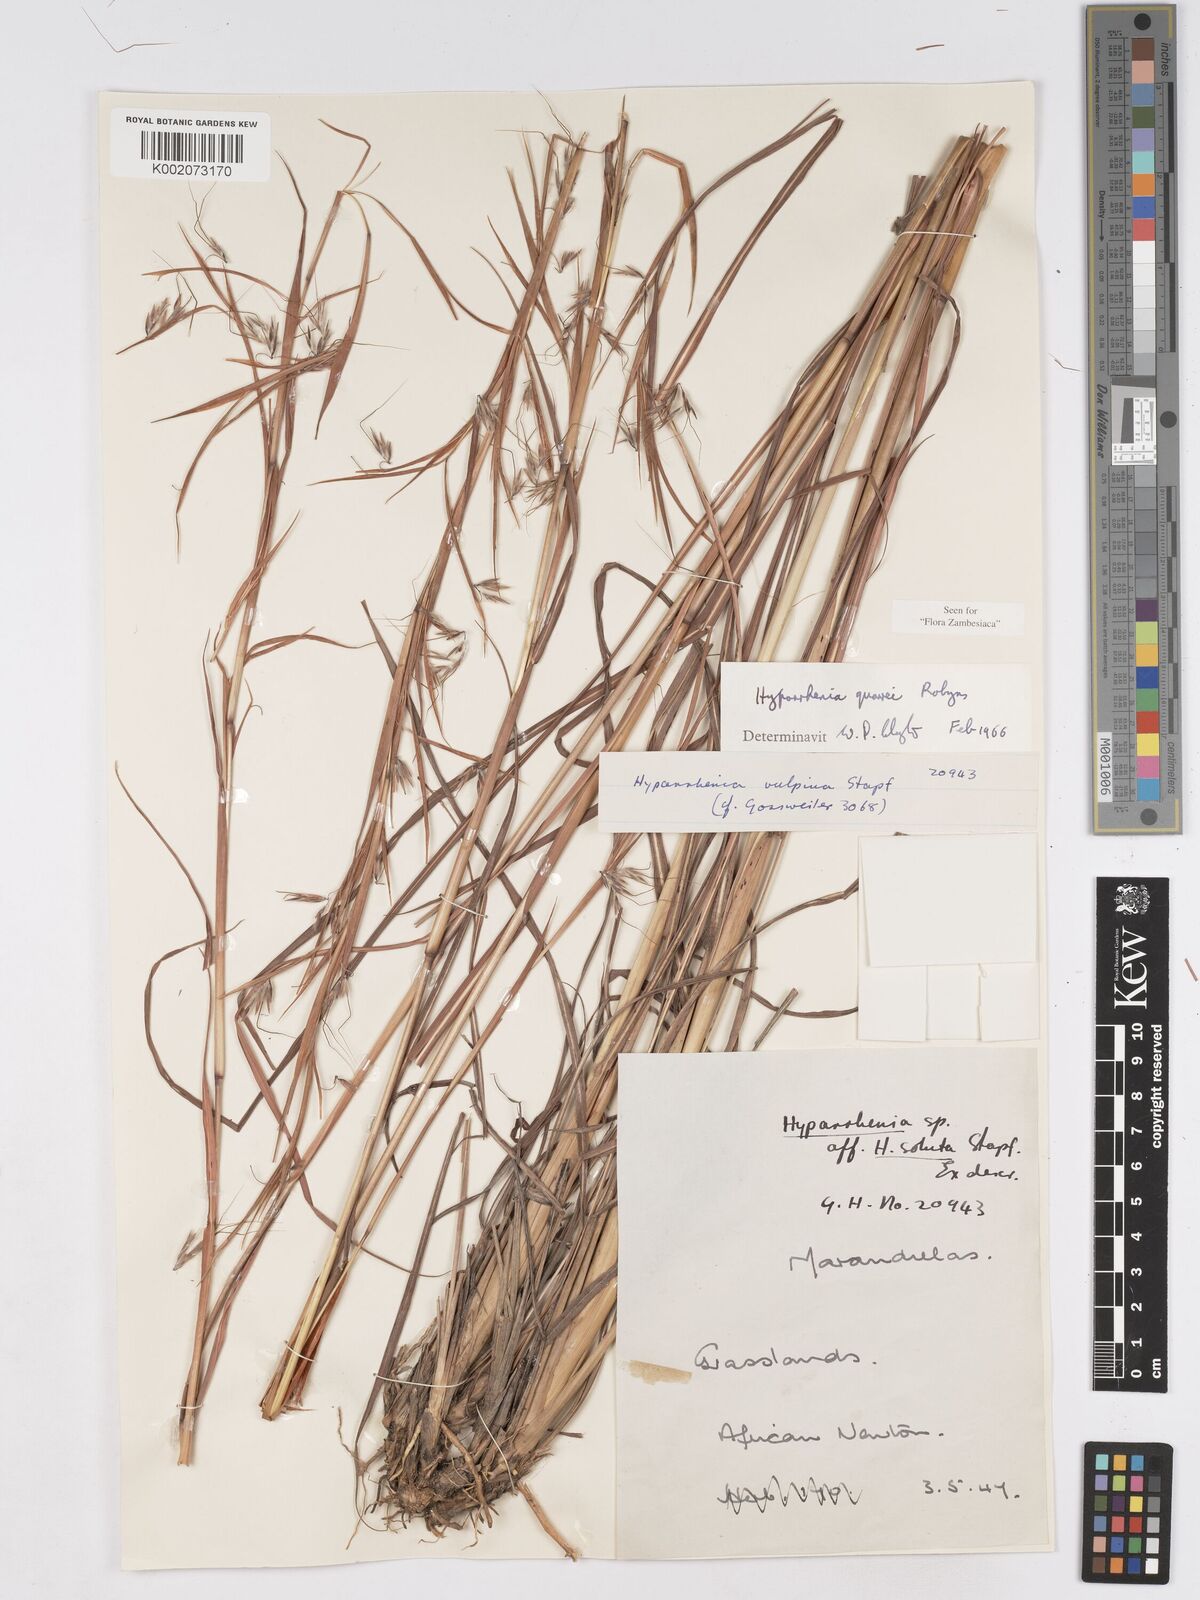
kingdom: Plantae
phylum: Tracheophyta
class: Liliopsida
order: Poales
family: Poaceae
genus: Hyparrhenia
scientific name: Hyparrhenia quarrei
